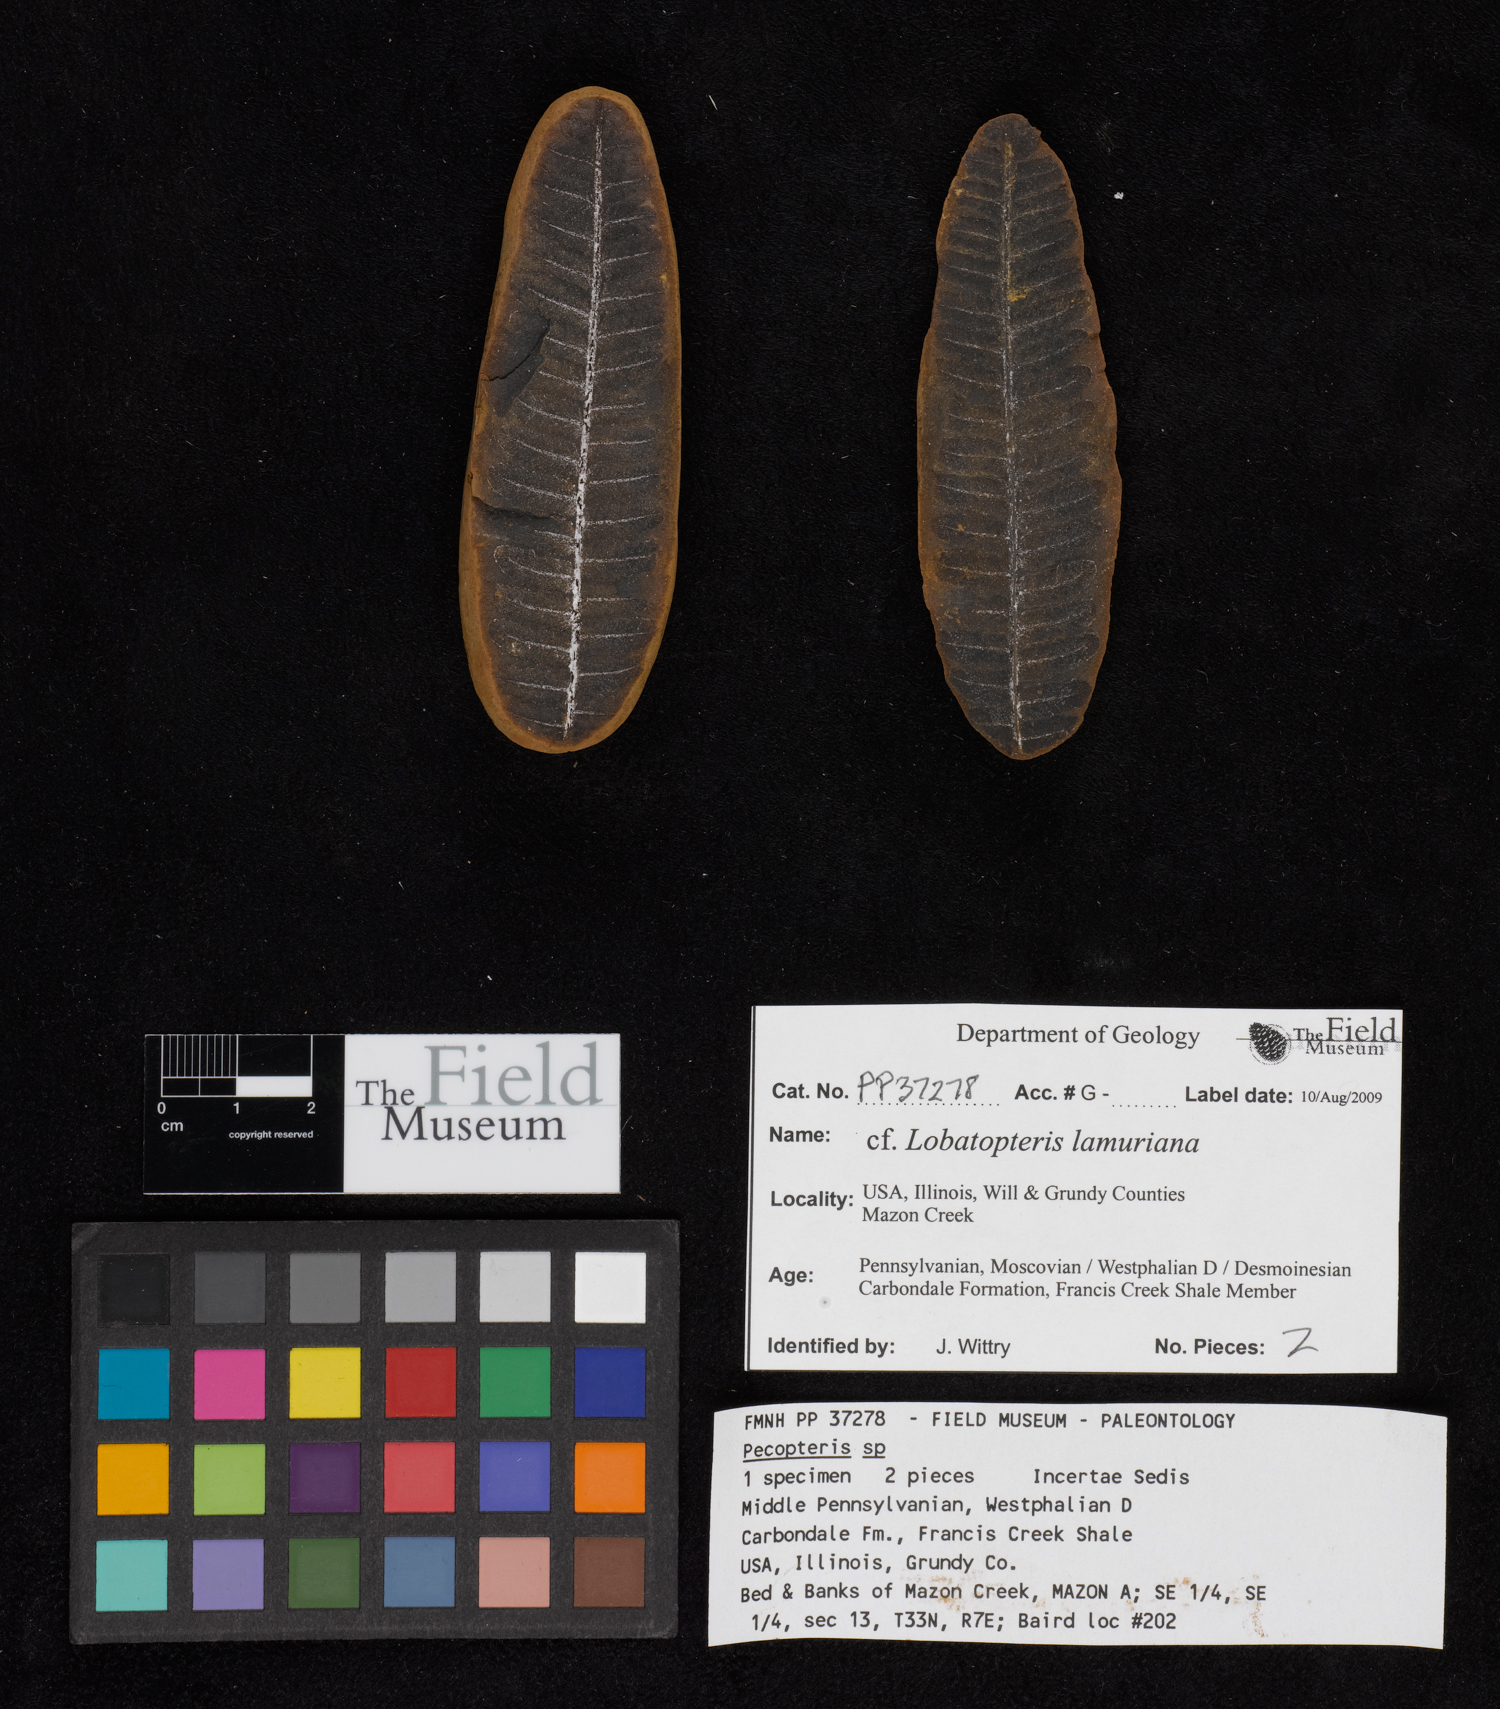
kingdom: Plantae
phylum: Tracheophyta
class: Polypodiopsida
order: Marattiales
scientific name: Marattiales
